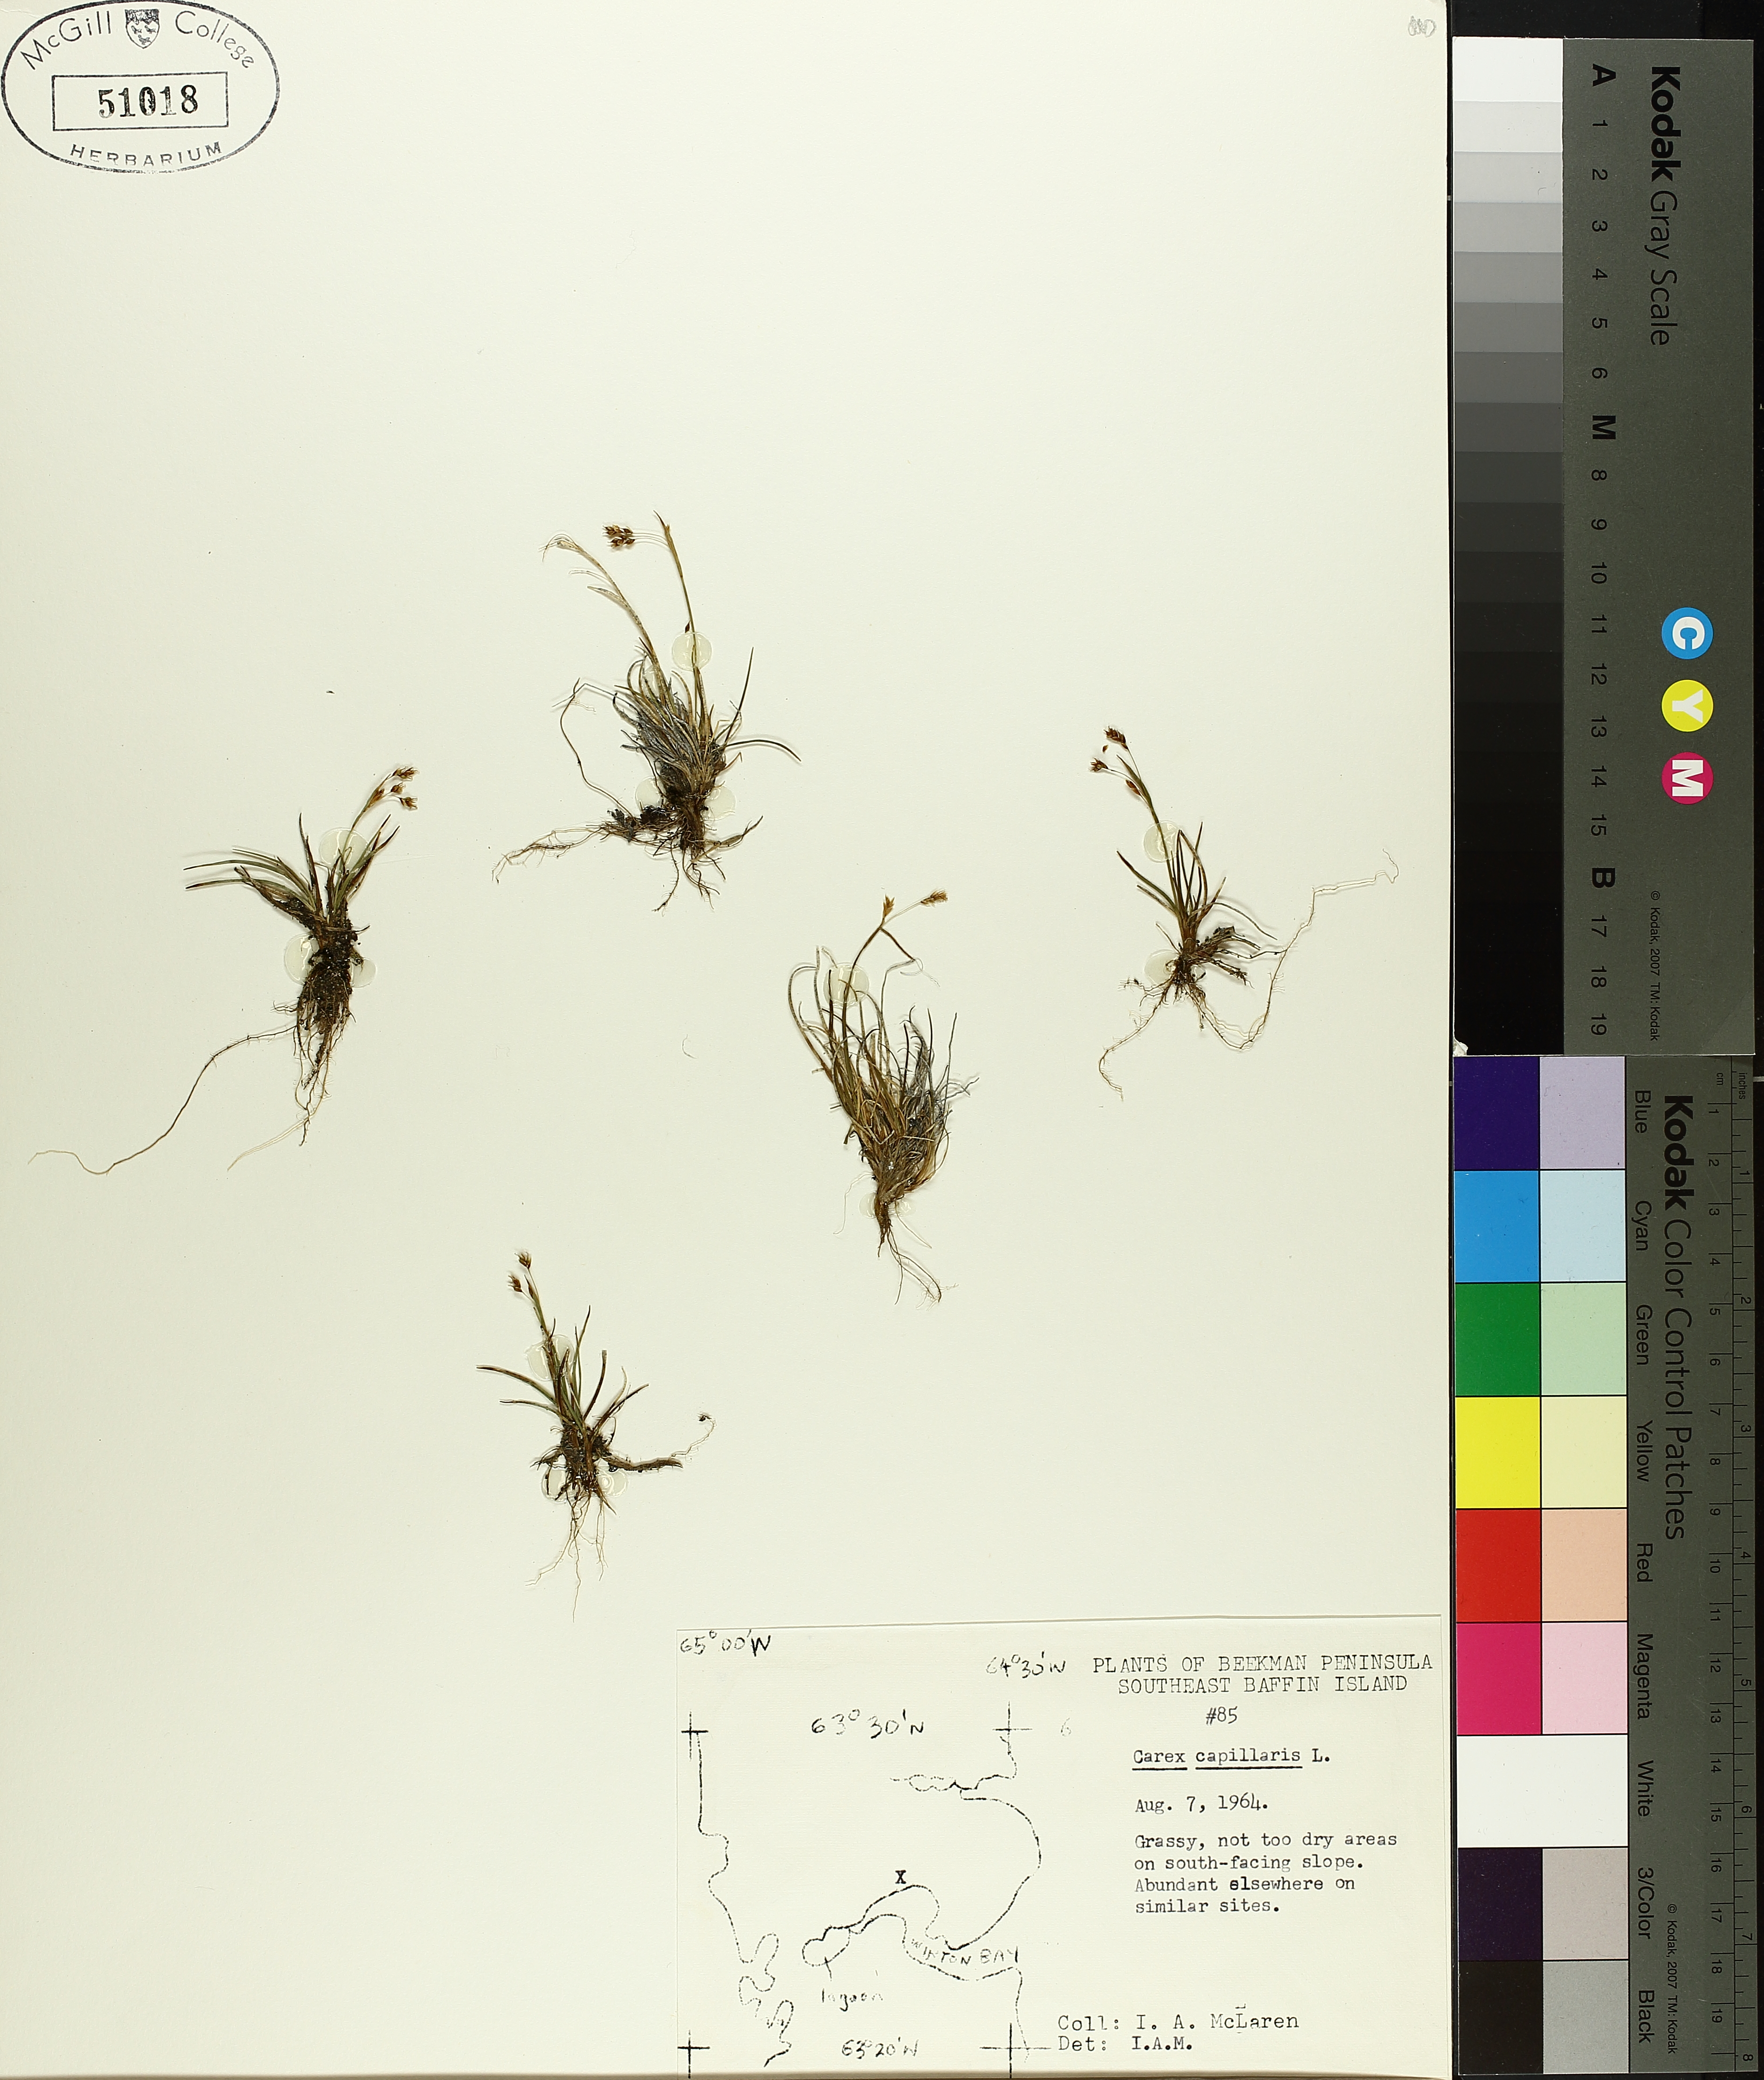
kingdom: Plantae
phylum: Tracheophyta
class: Liliopsida
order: Poales
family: Cyperaceae
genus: Carex
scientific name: Carex capillaris
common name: Hair sedge
